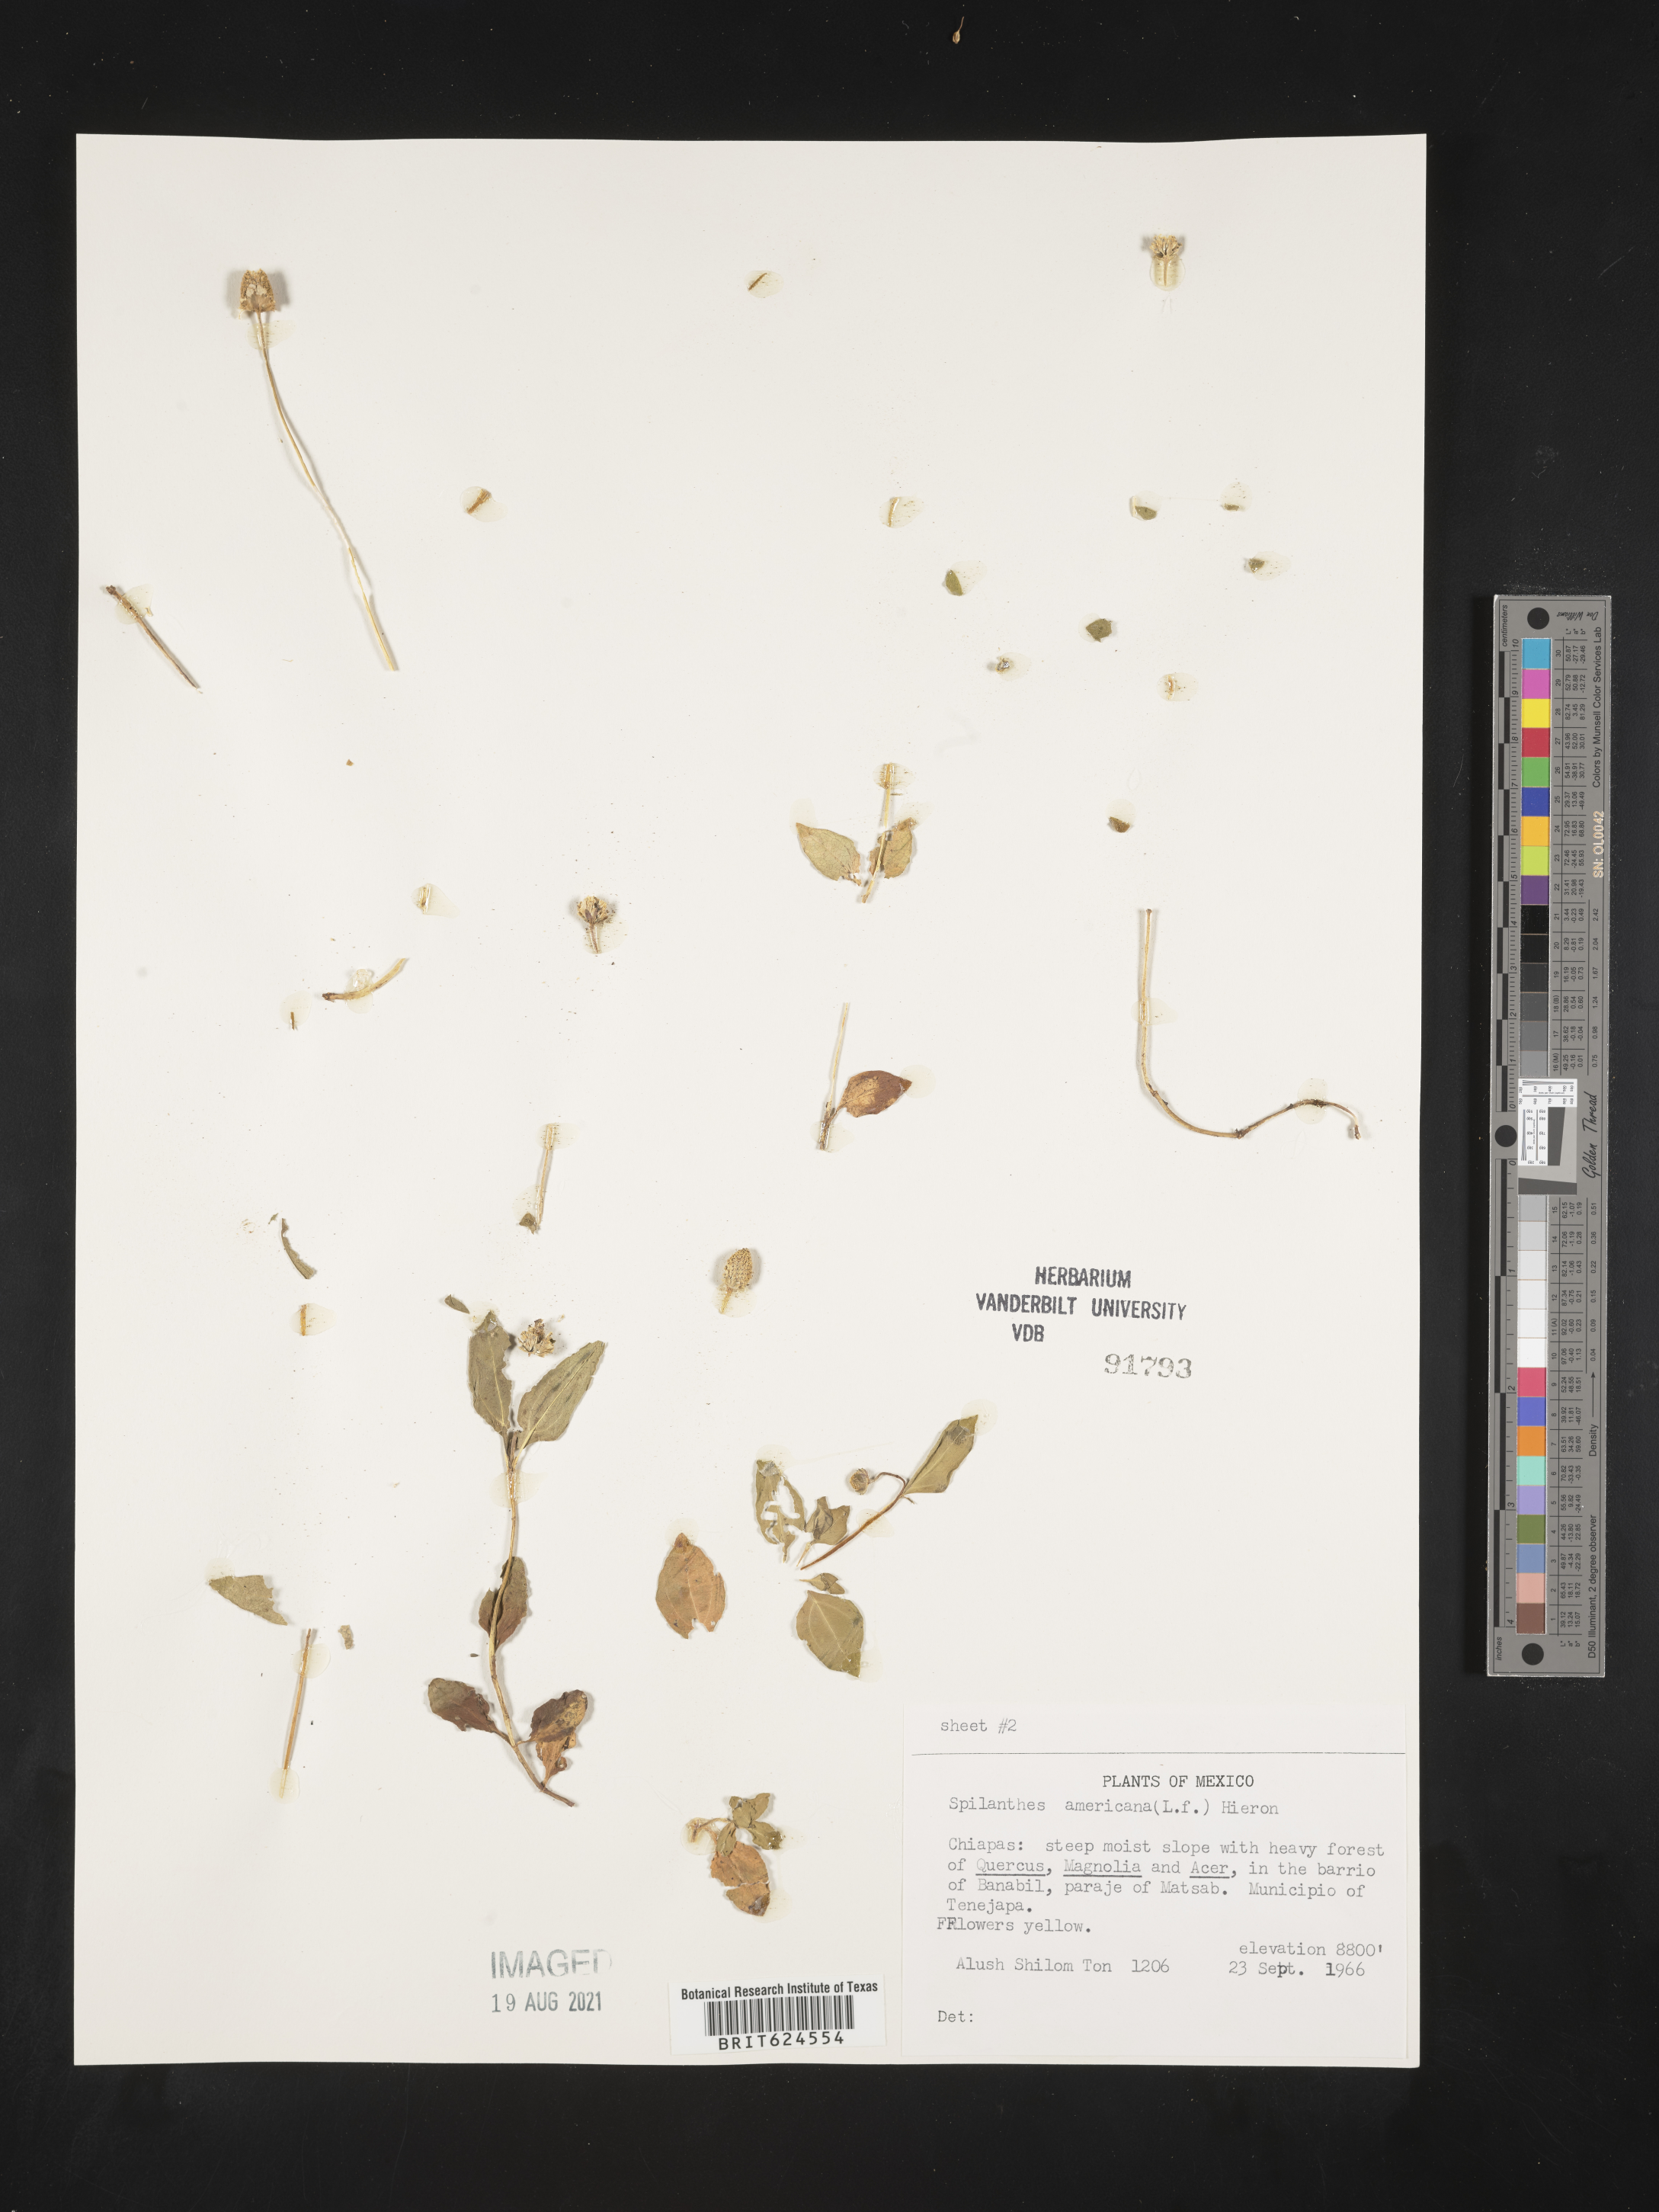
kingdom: Plantae
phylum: Tracheophyta
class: Magnoliopsida
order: Asterales
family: Asteraceae
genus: Spilanthes
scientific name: Spilanthes
